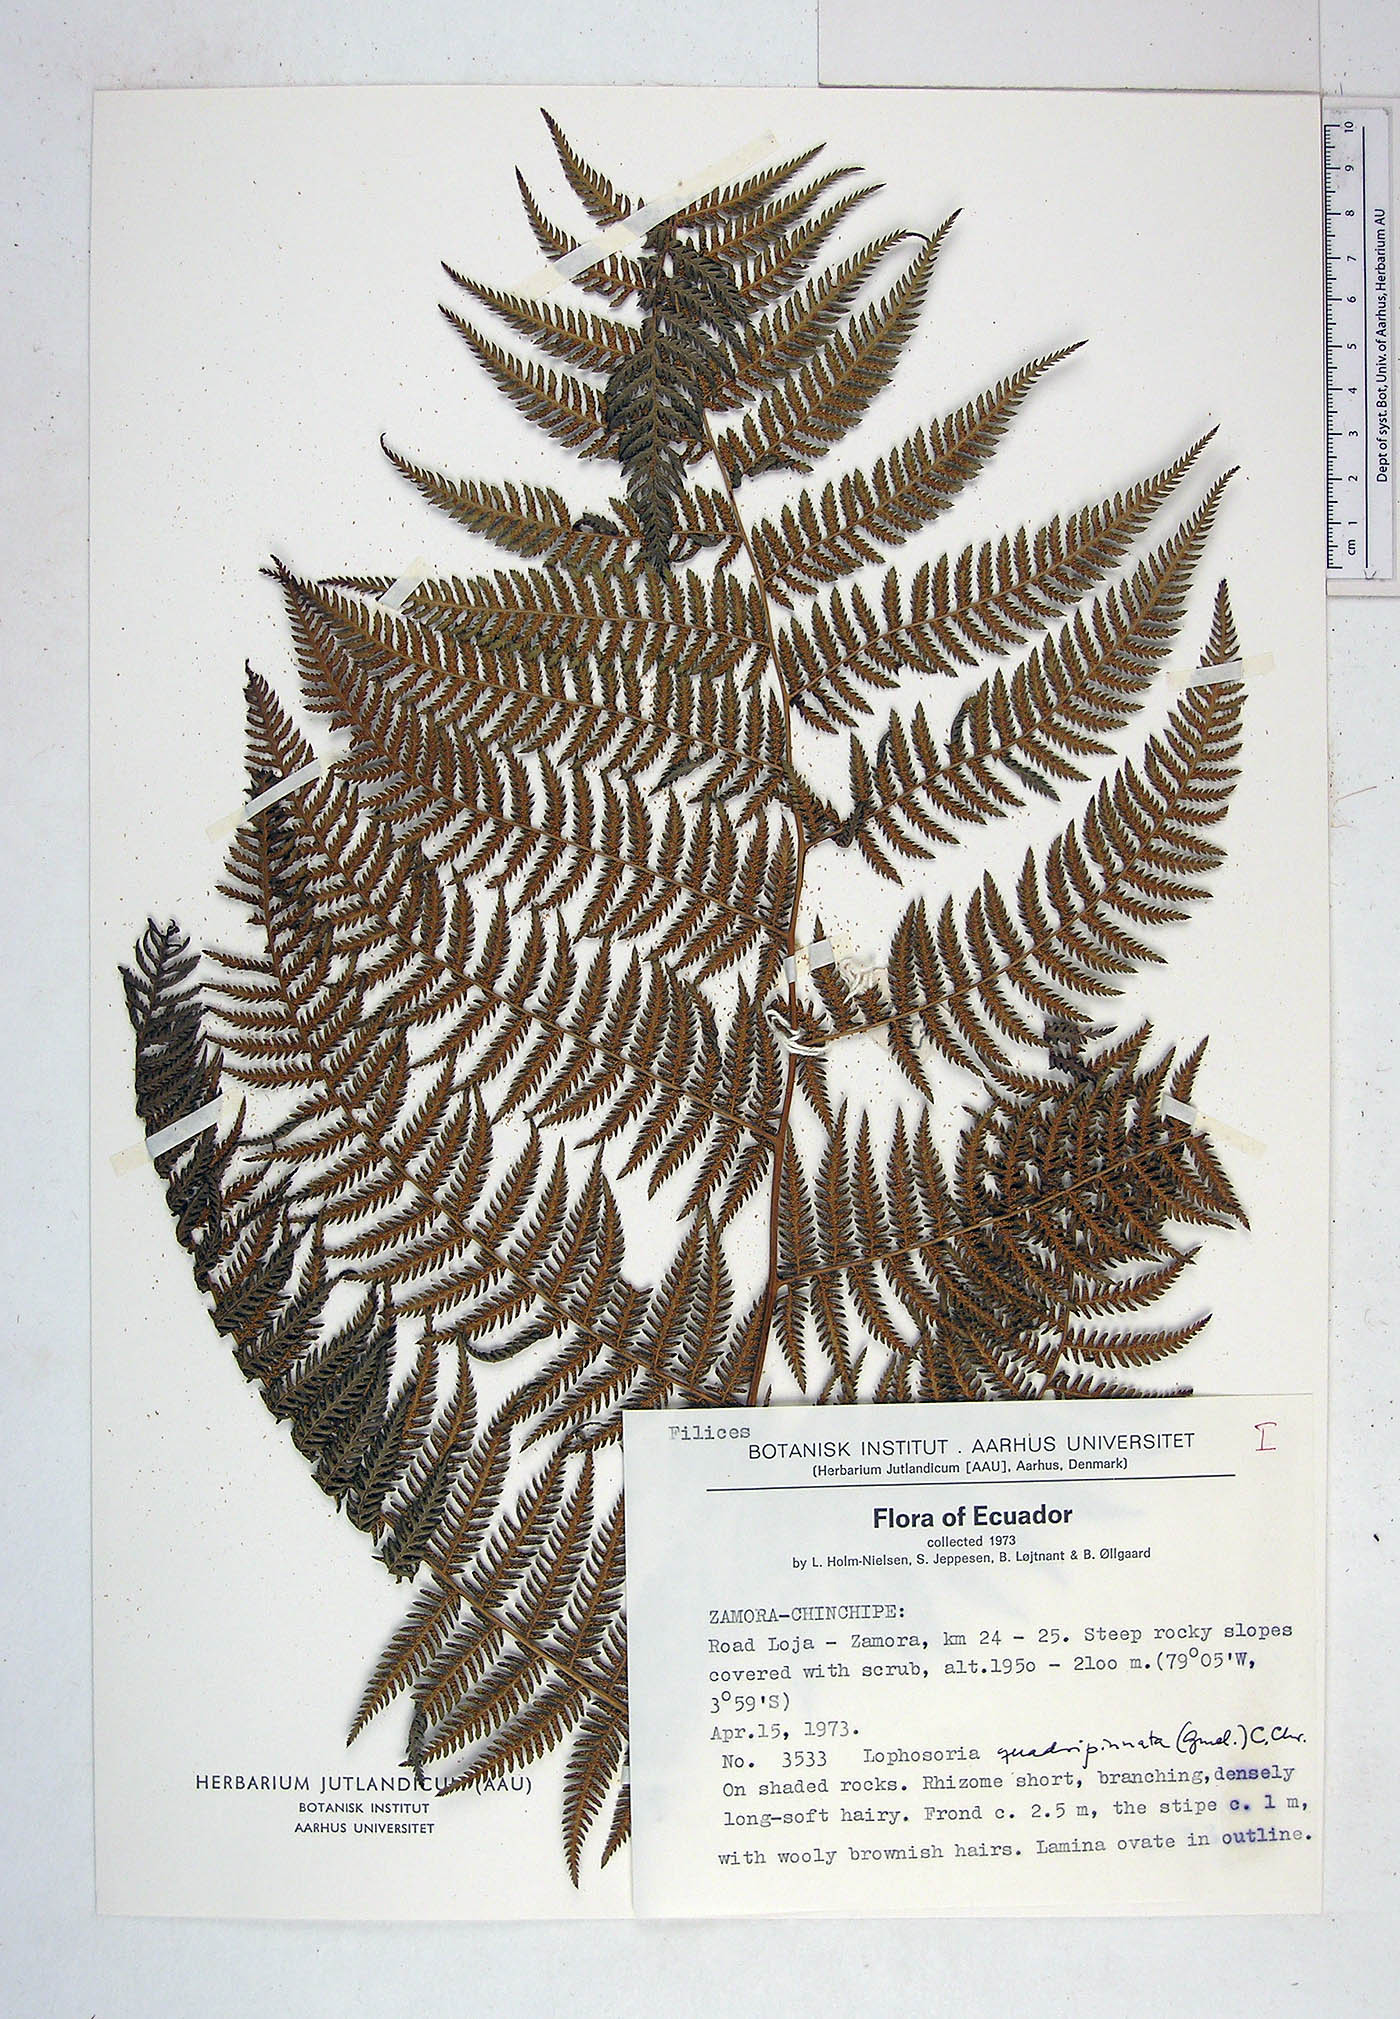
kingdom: Plantae
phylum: Tracheophyta
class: Polypodiopsida
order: Cyatheales
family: Dicksoniaceae
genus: Lophosoria
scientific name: Lophosoria quadripinnata
